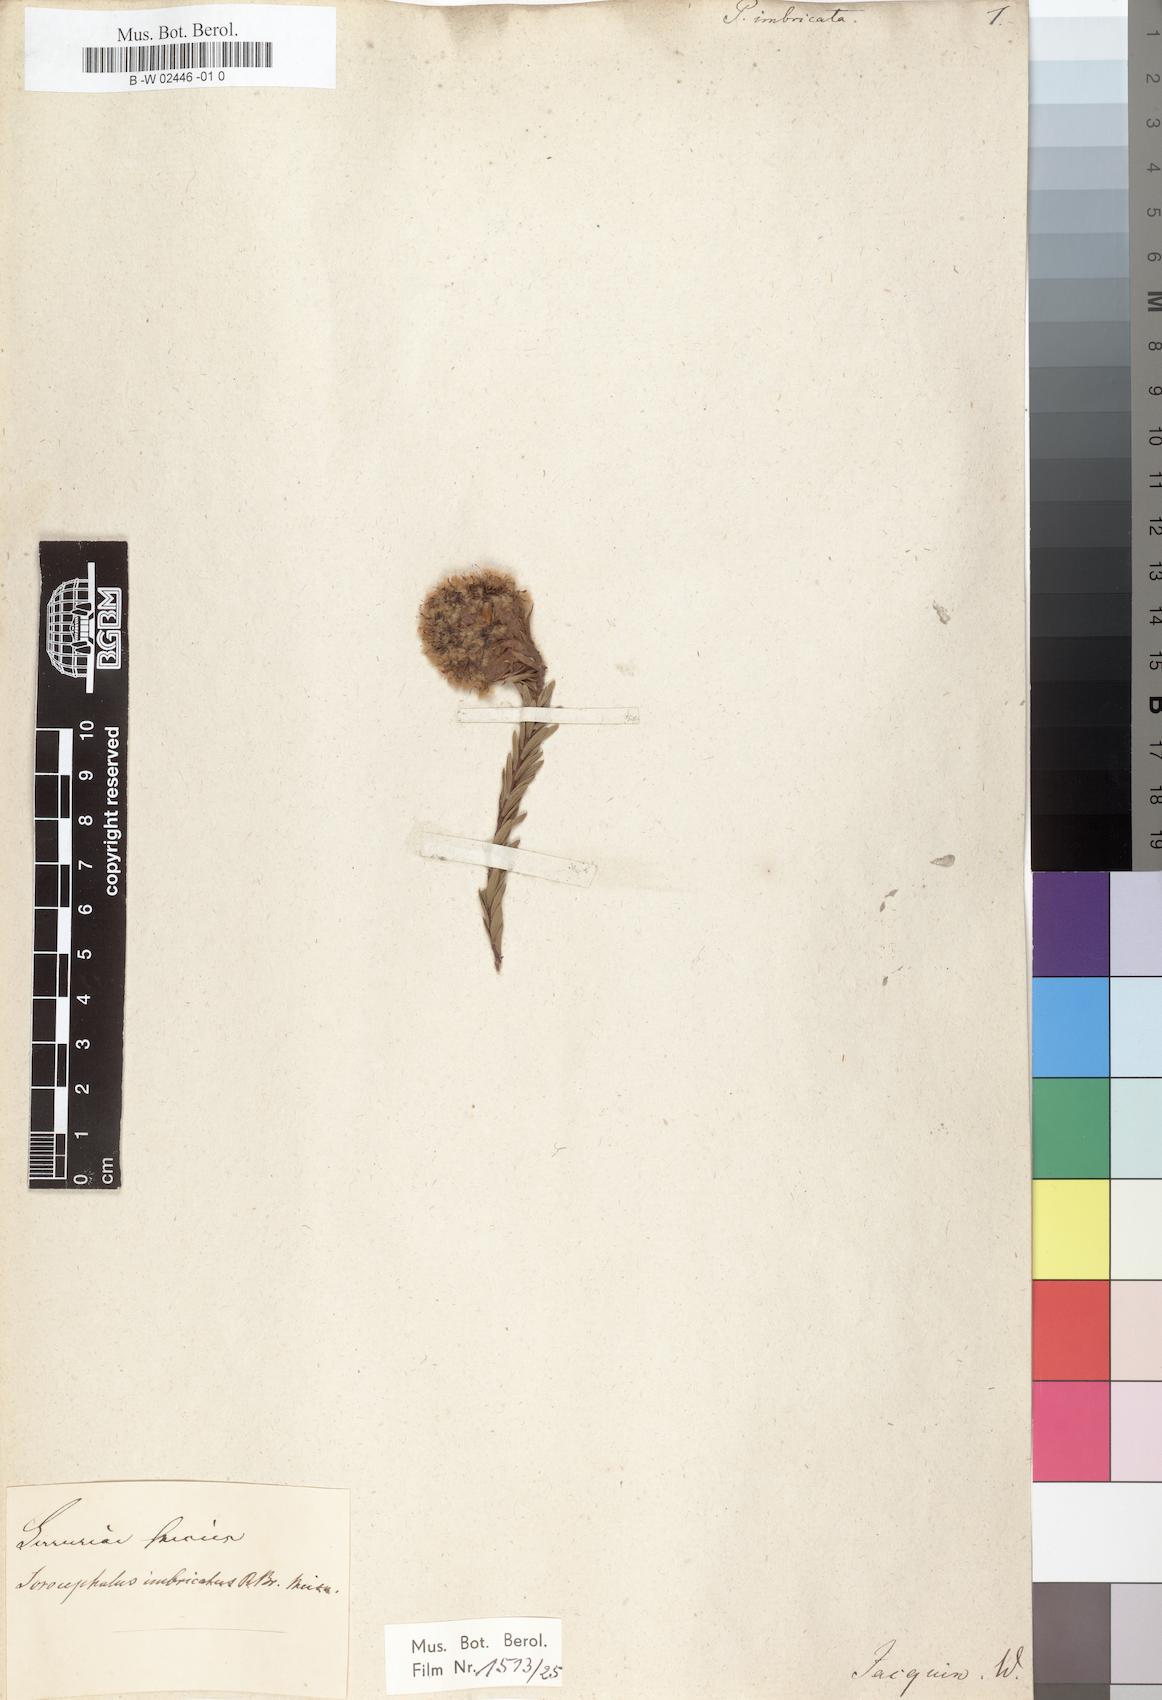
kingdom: Plantae
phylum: Tracheophyta
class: Magnoliopsida
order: Proteales
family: Proteaceae
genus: Protea
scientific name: Protea imbricata
